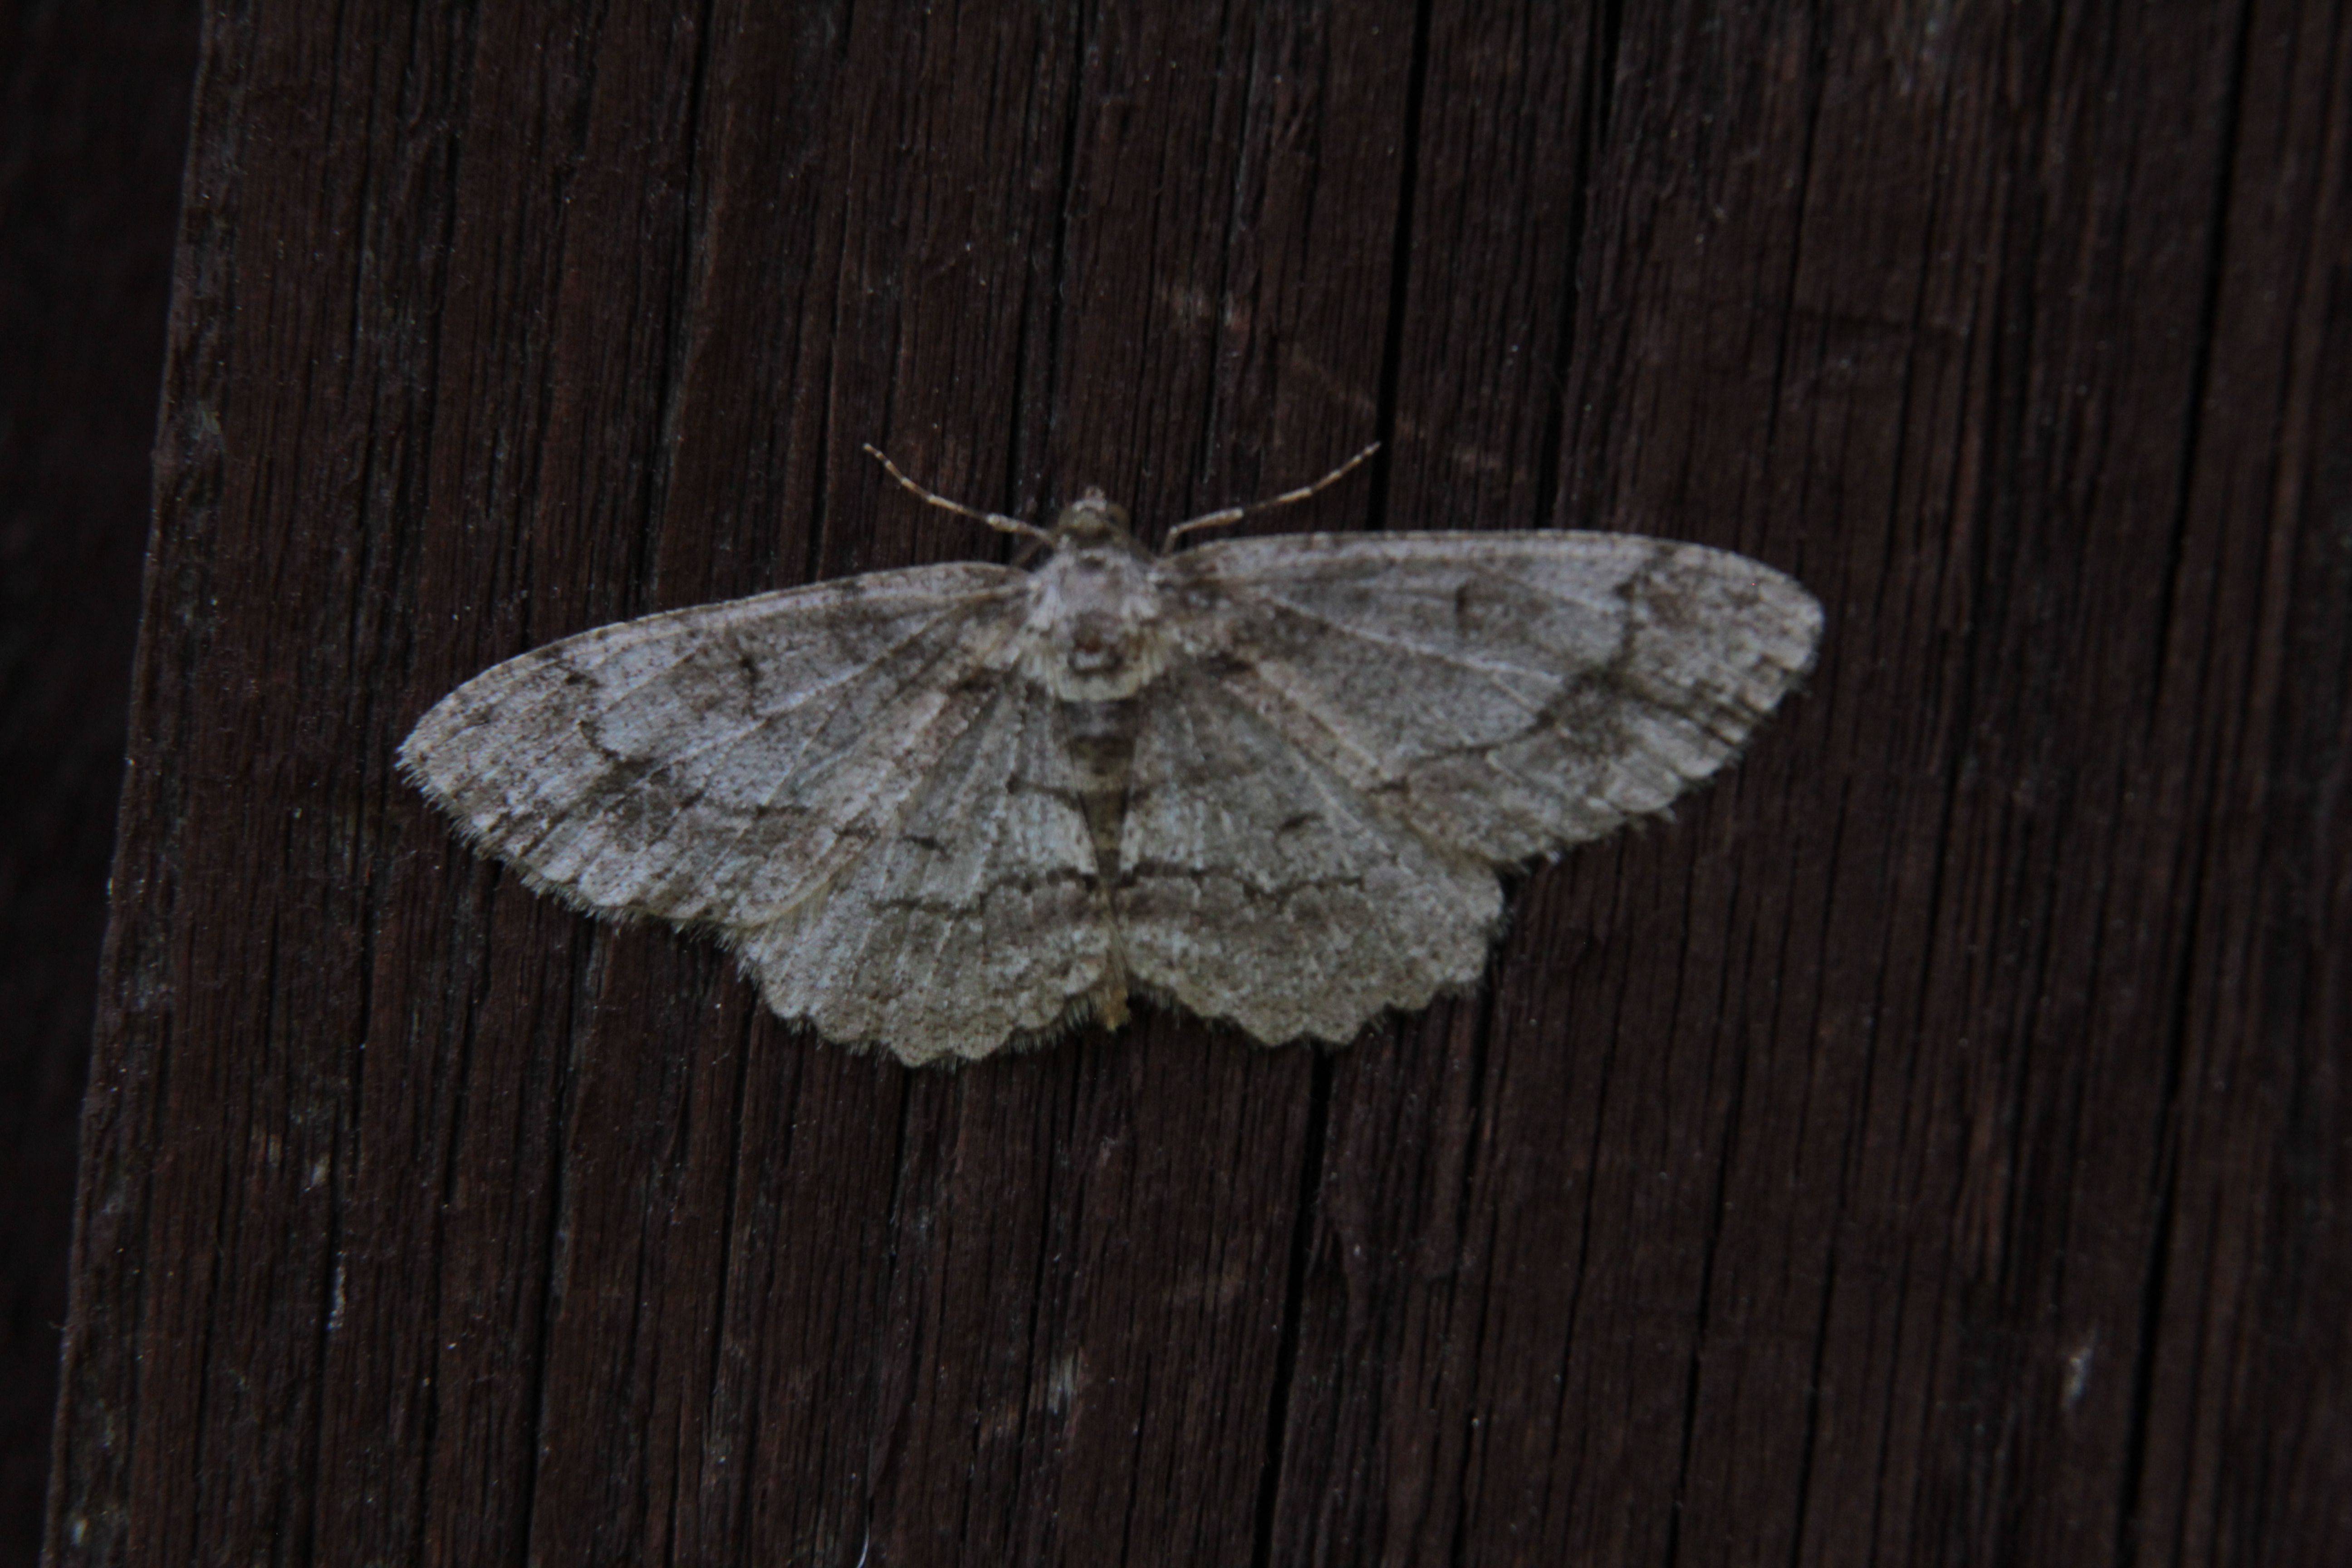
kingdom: Animalia
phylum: Arthropoda
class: Insecta
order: Lepidoptera
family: Geometridae
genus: Cleora
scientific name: Cleora cinctaria
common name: Ringed carpet
